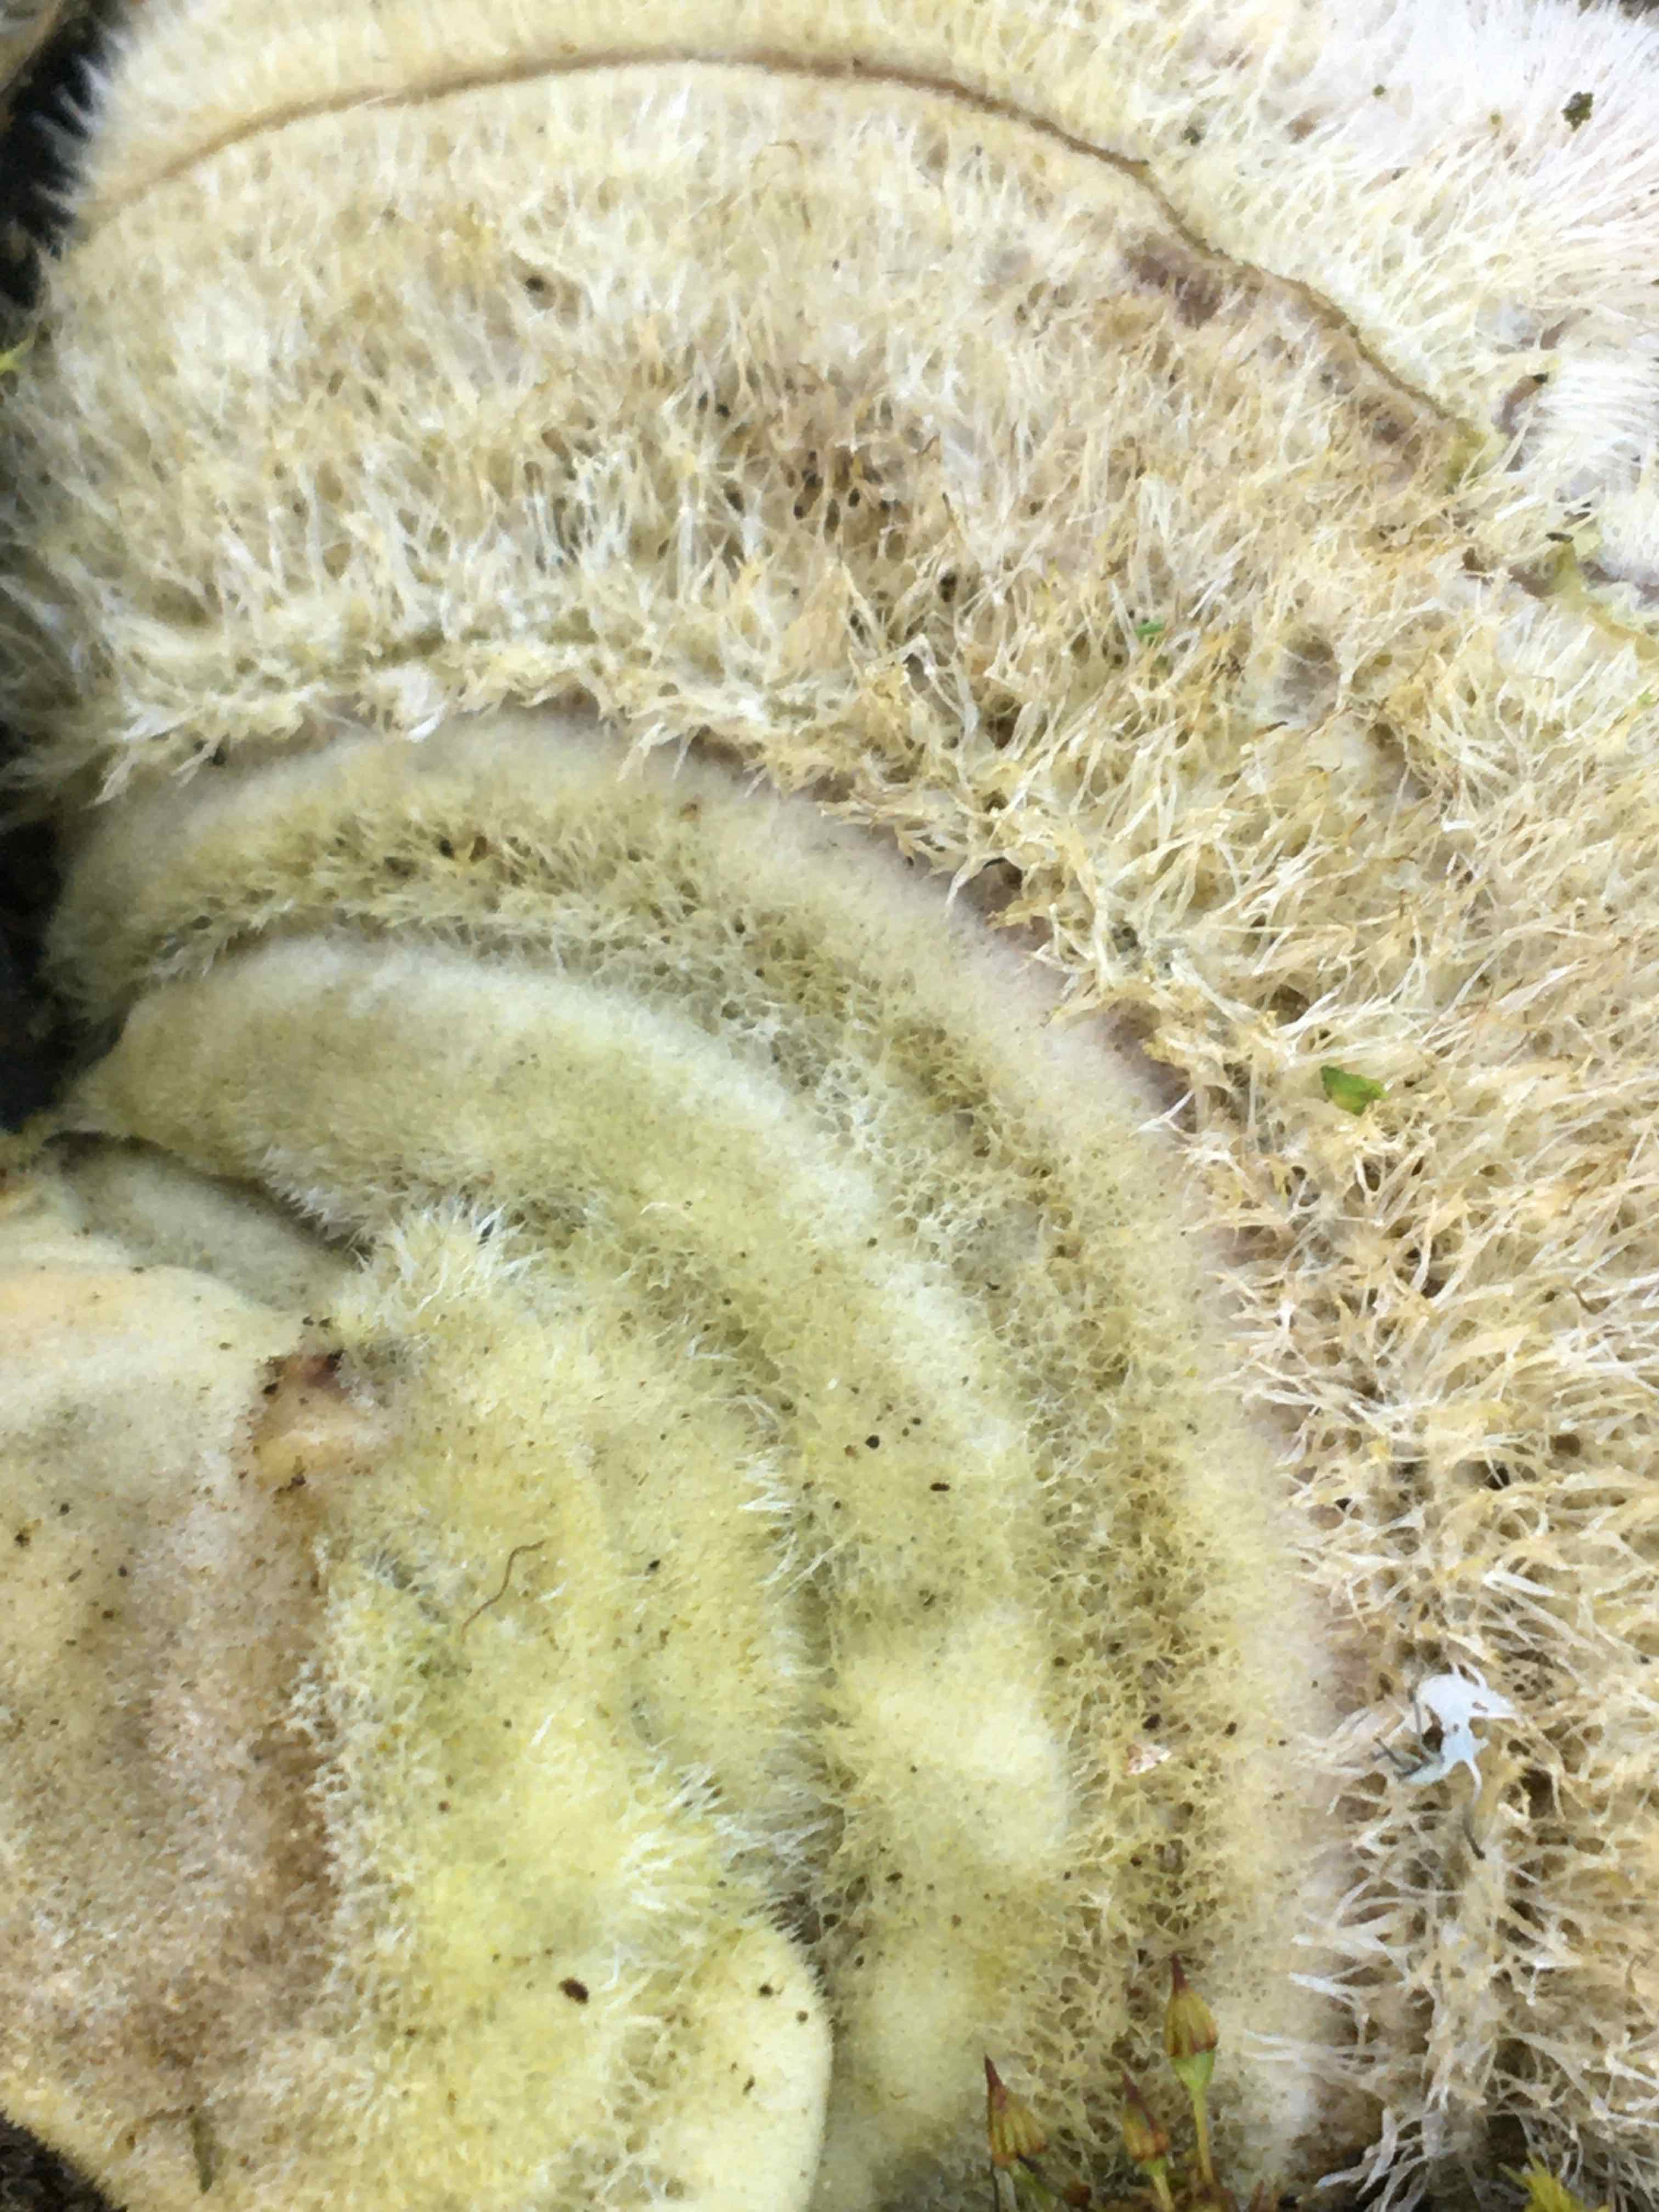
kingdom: Fungi
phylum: Basidiomycota
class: Agaricomycetes
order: Polyporales
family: Polyporaceae
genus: Trametes
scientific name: Trametes hirsuta
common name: håret læderporesvamp
